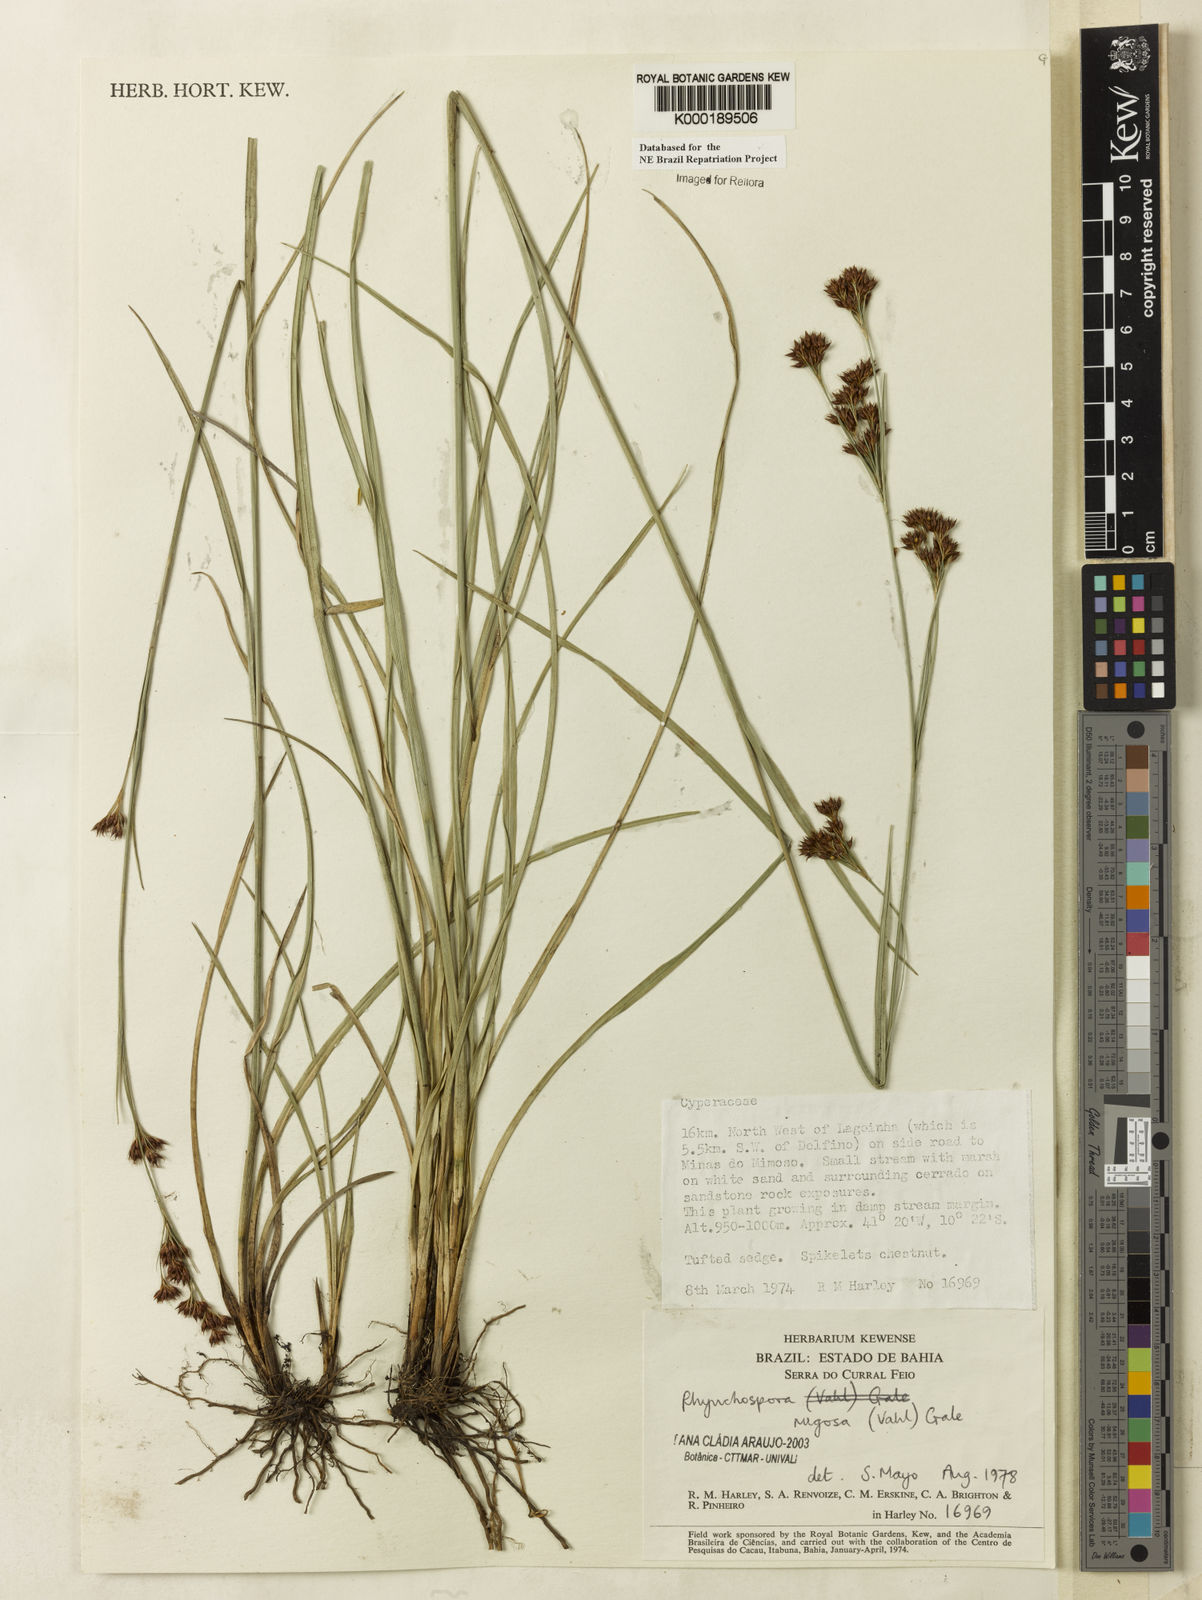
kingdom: Plantae
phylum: Tracheophyta
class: Liliopsida
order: Poales
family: Cyperaceae
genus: Rhynchospora
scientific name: Rhynchospora rugosa
